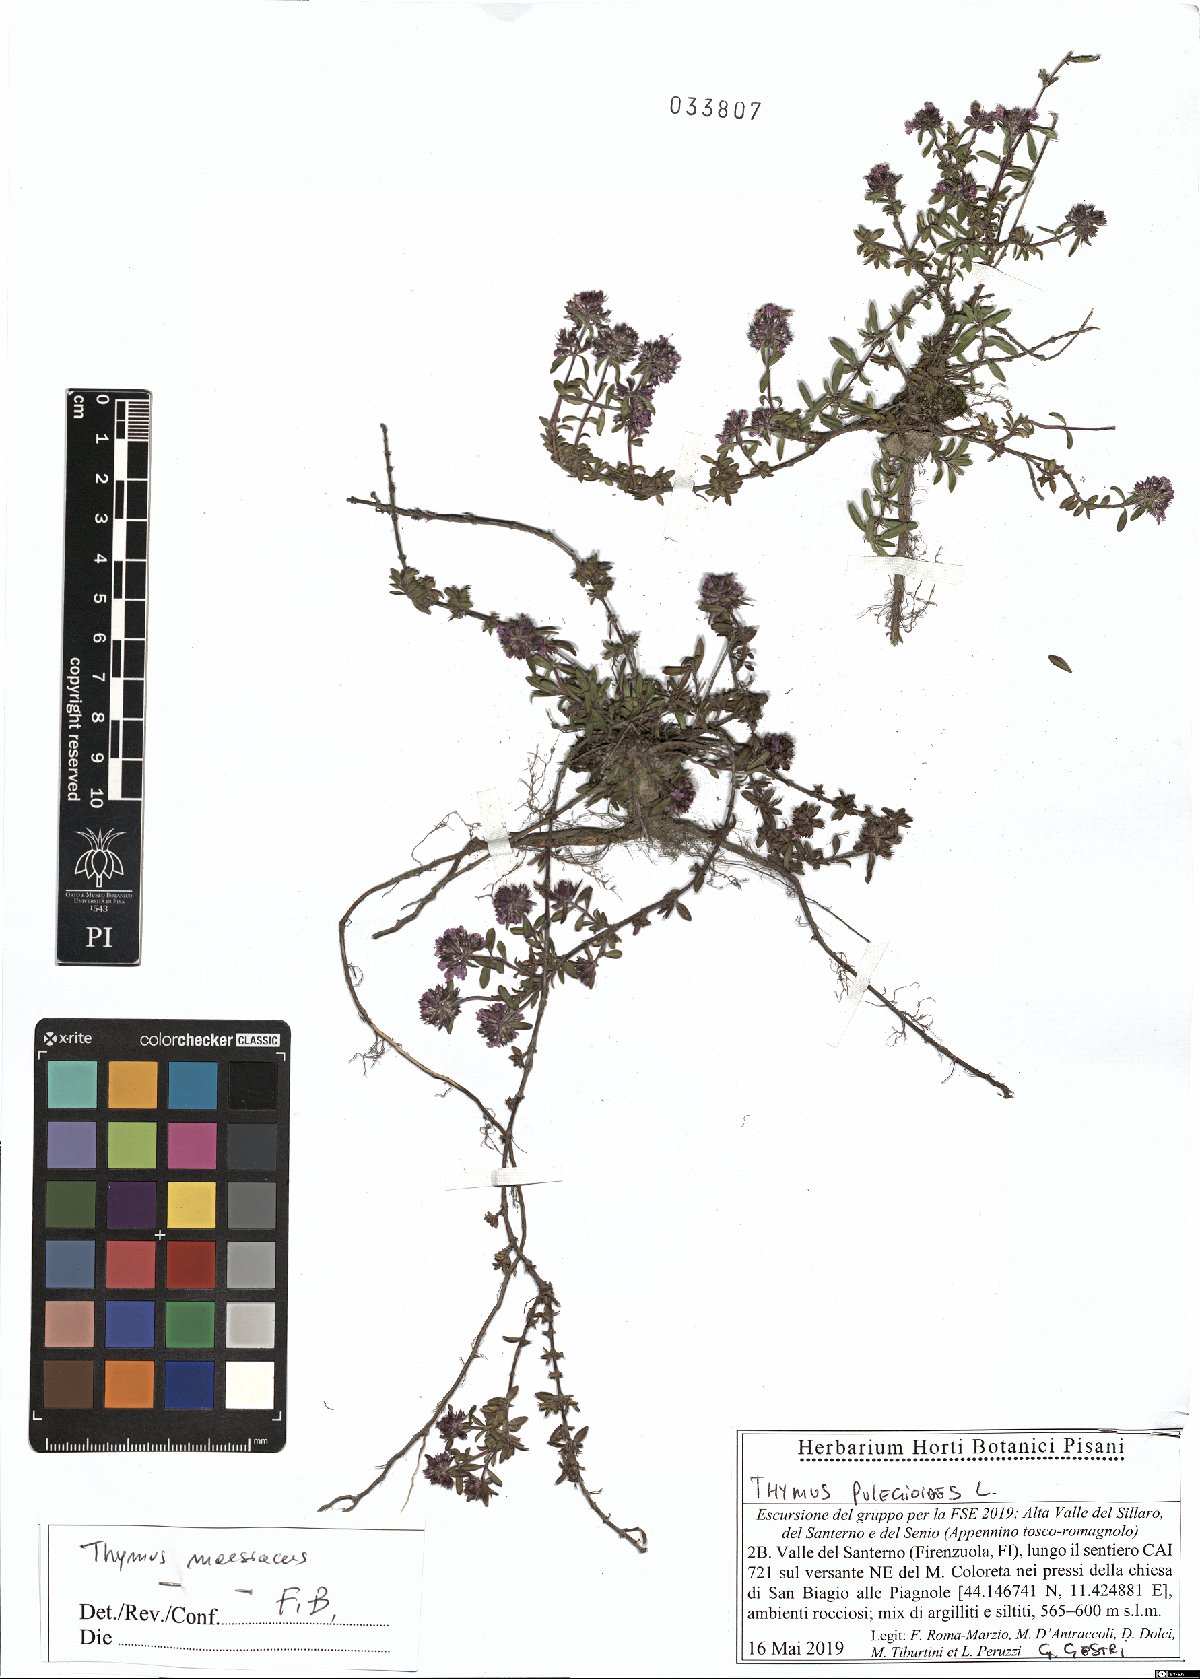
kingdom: Plantae
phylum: Tracheophyta
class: Magnoliopsida
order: Lamiales
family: Lamiaceae
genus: Thymus
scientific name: Thymus longicaulis
